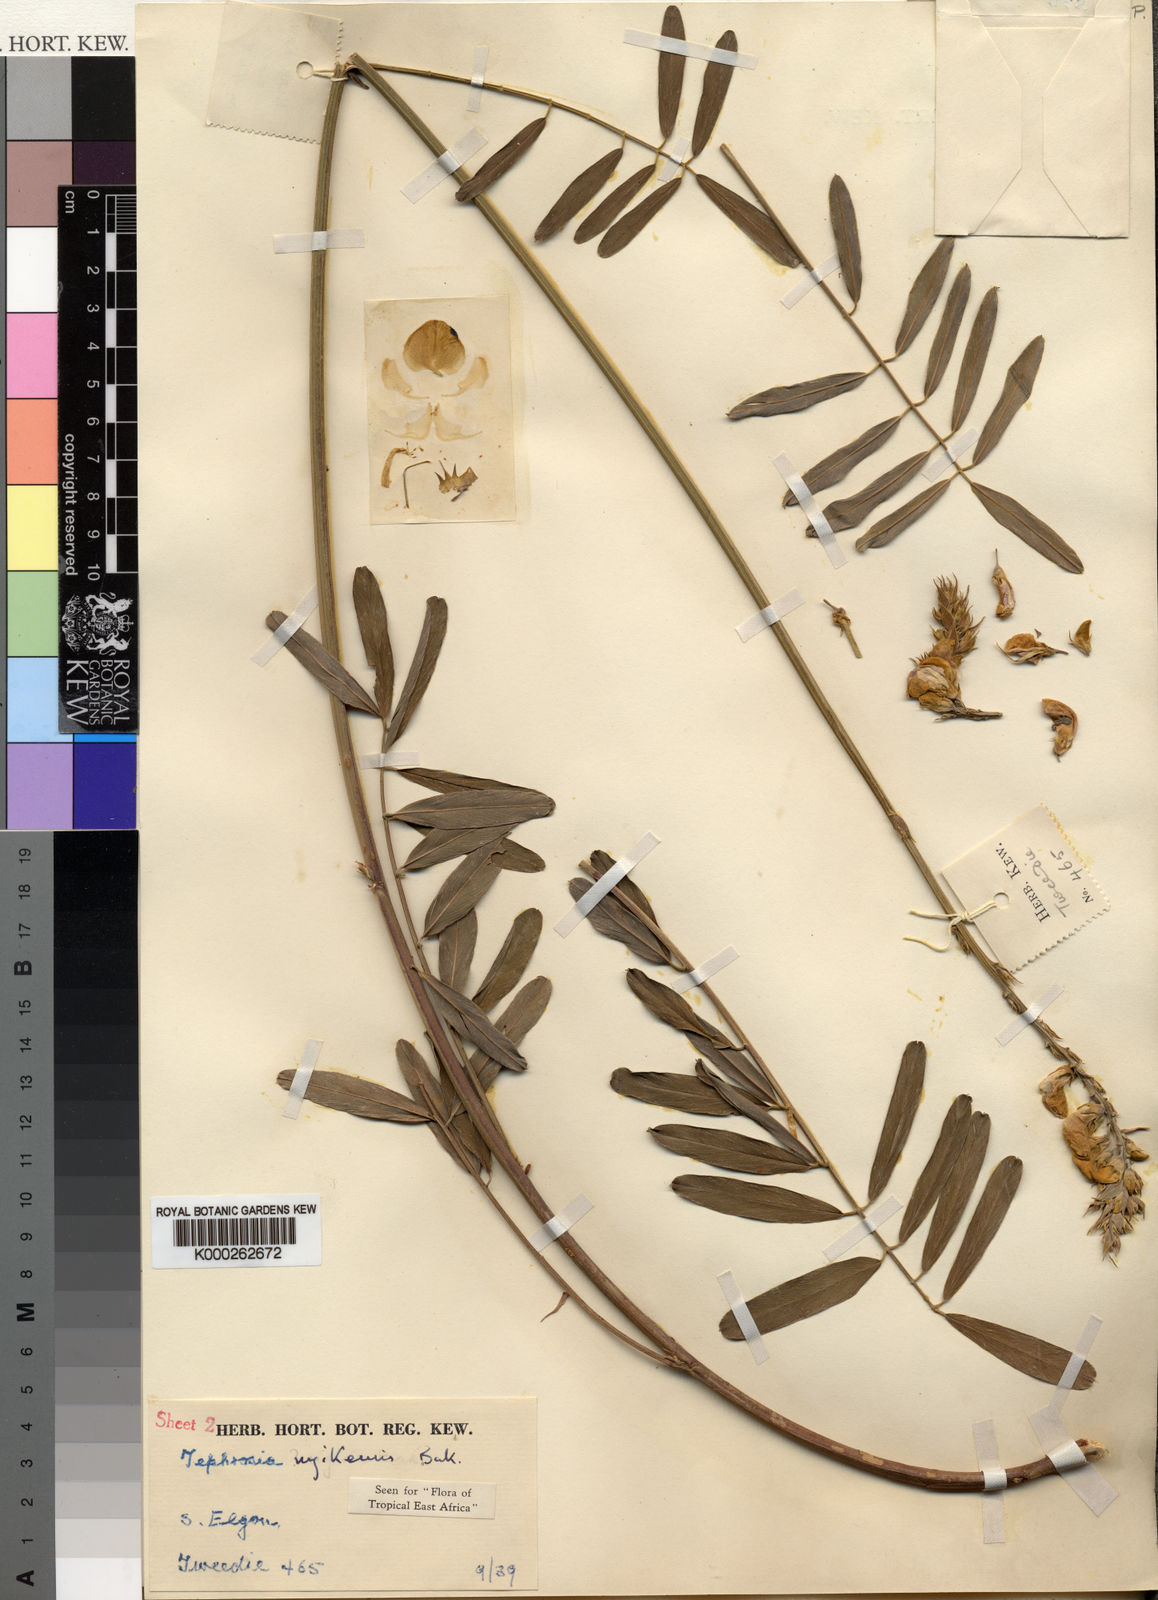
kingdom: Plantae
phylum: Tracheophyta
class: Magnoliopsida
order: Fabales
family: Fabaceae
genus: Tephrosia
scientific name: Tephrosia nyikensis
